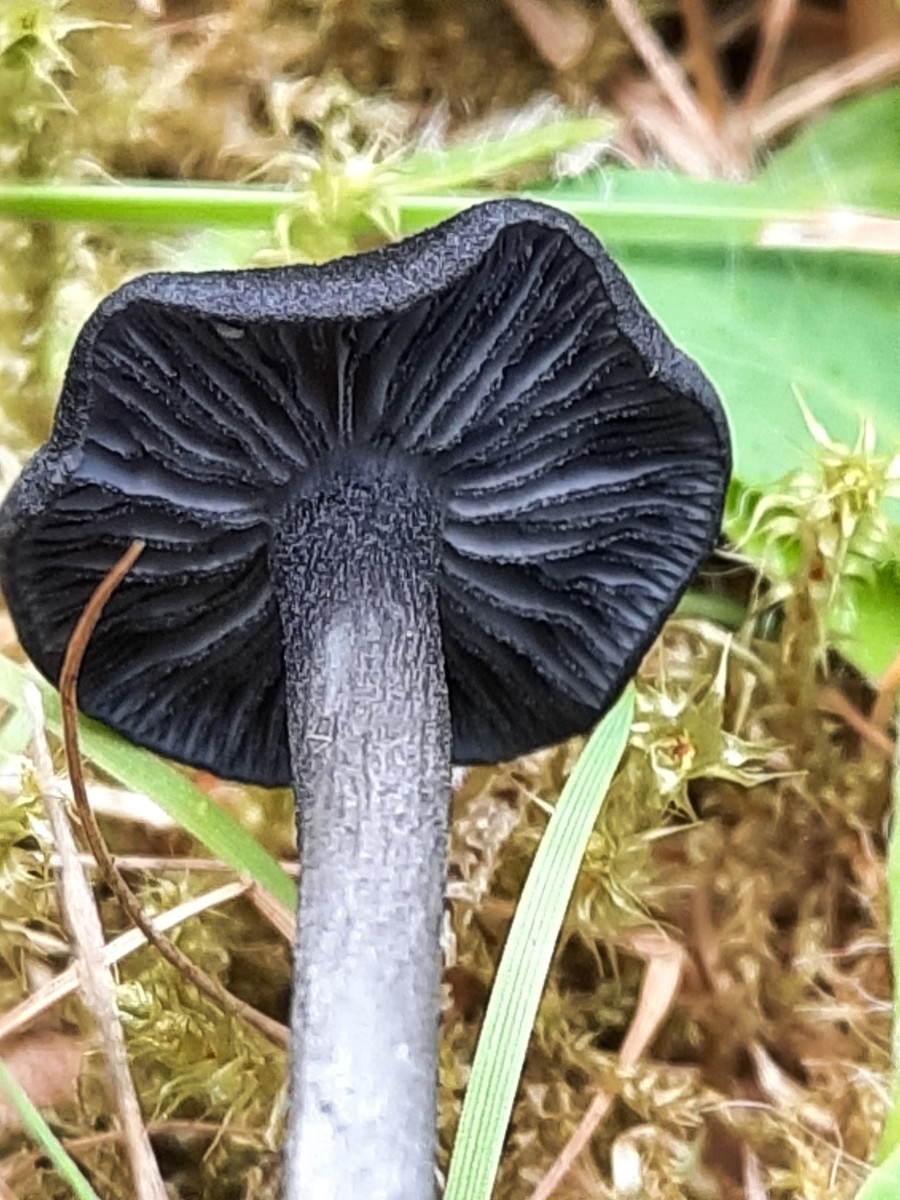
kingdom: Fungi
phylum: Basidiomycota
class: Agaricomycetes
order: Agaricales
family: Entolomataceae
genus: Entoloma
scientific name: Entoloma
